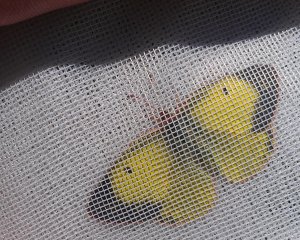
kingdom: Animalia
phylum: Arthropoda
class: Insecta
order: Lepidoptera
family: Pieridae
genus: Colias
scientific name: Colias philodice
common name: Clouded Sulphur
